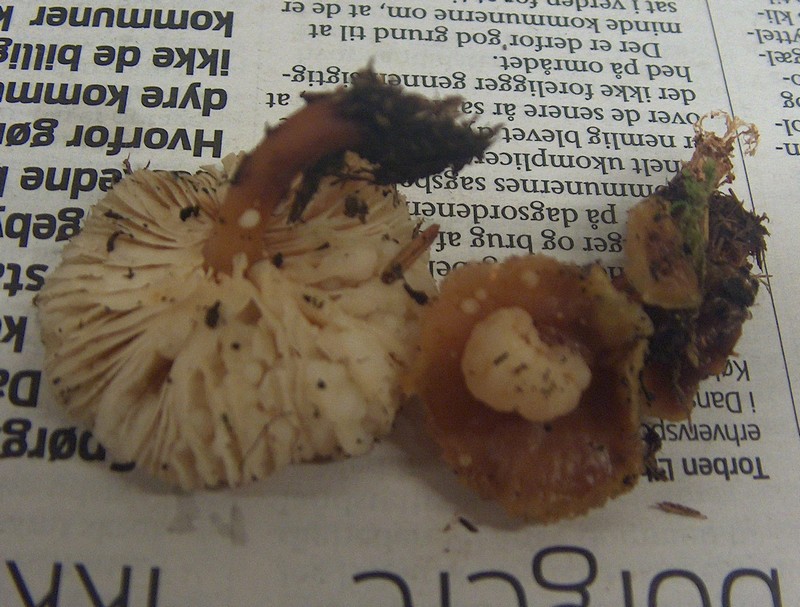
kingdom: Fungi
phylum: Basidiomycota
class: Agaricomycetes
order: Agaricales
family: Omphalotaceae
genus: Gymnopus
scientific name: Gymnopus dryophilus
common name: løv-fladhat
